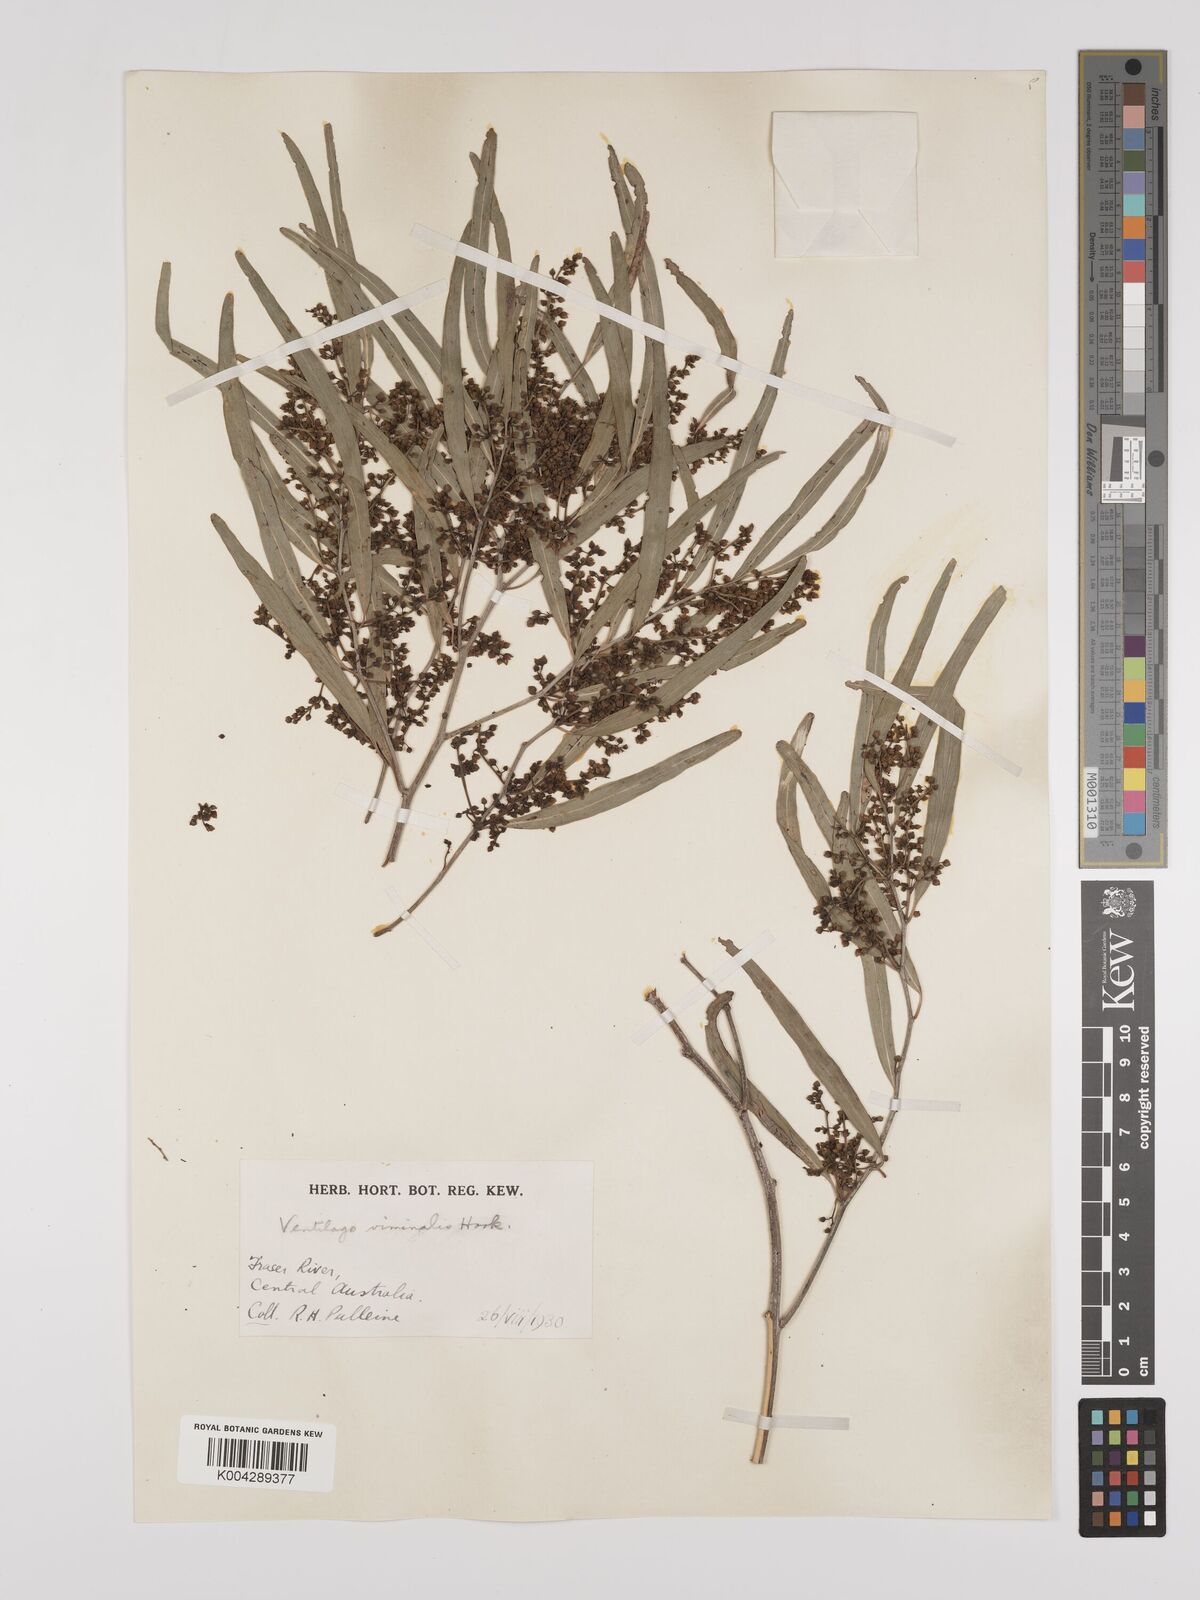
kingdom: Plantae
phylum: Tracheophyta
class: Magnoliopsida
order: Rosales
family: Rhamnaceae
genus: Ventilago
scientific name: Ventilago viminalis
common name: Medicine-bark
